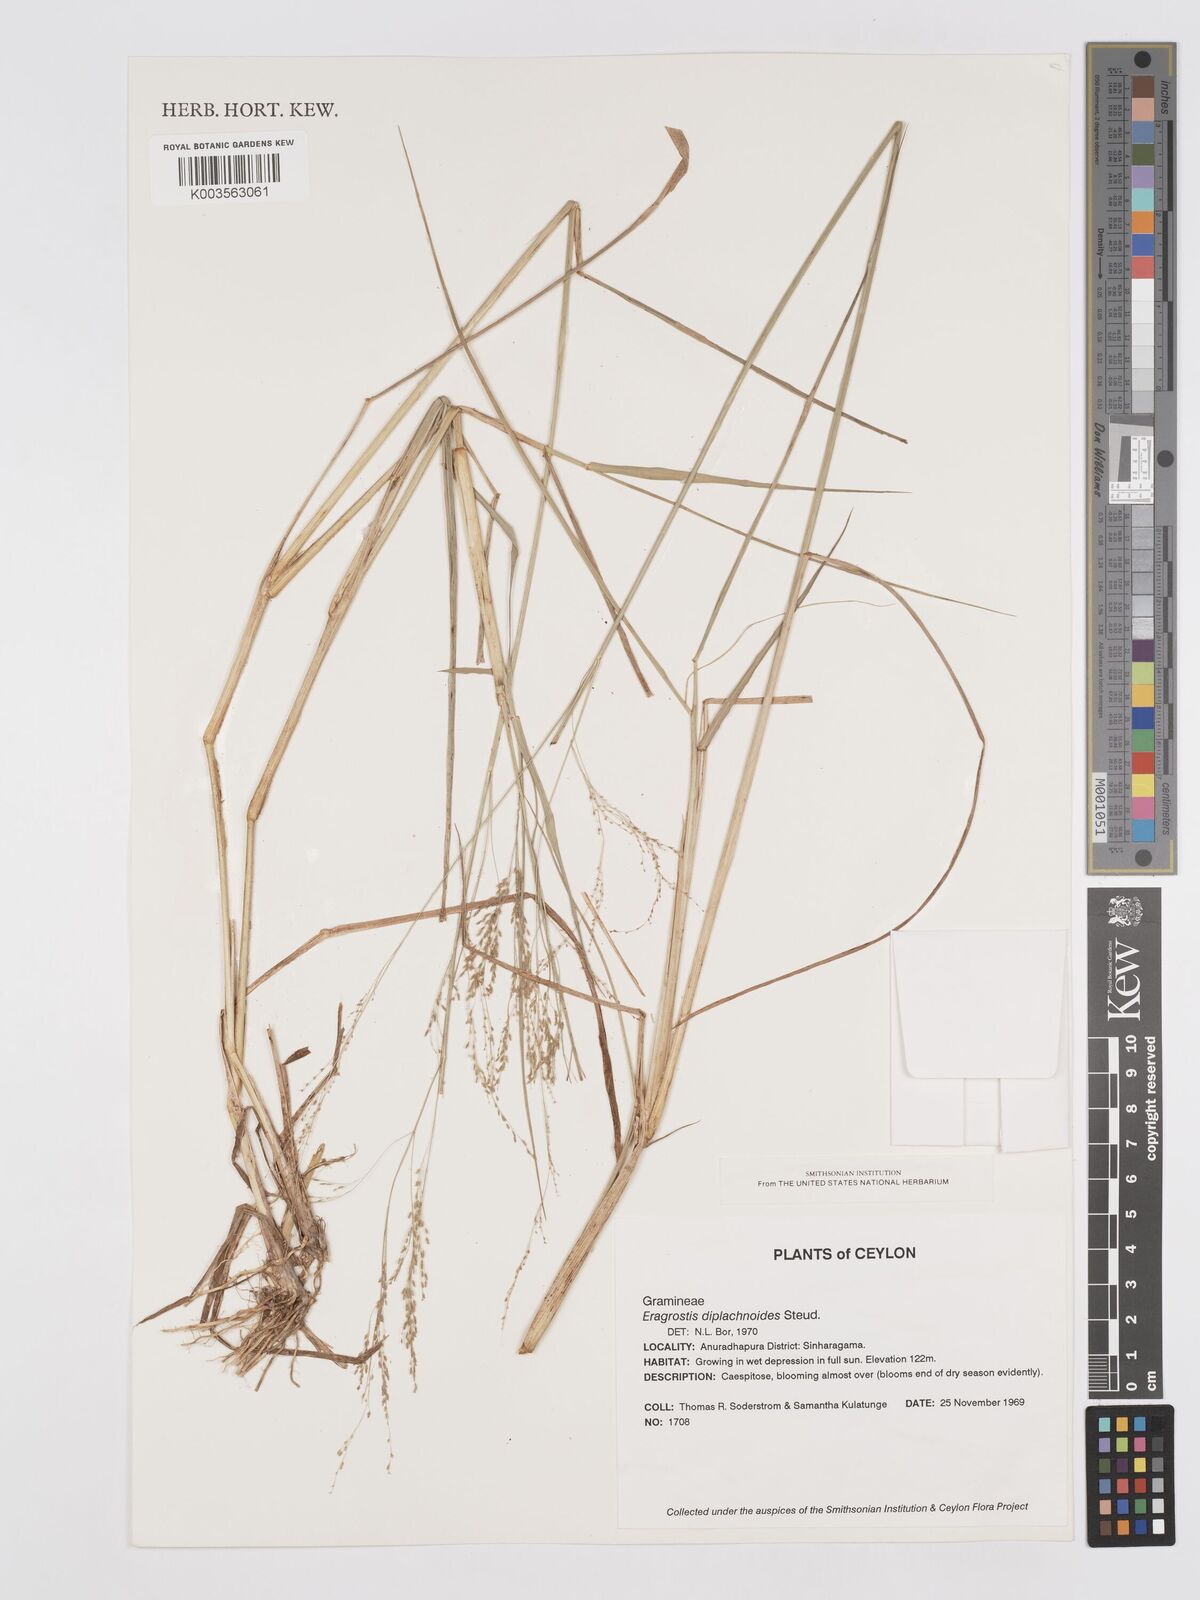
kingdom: Plantae
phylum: Tracheophyta
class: Liliopsida
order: Poales
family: Poaceae
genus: Eragrostis
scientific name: Eragrostis japonica
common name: Pond lovegrass
